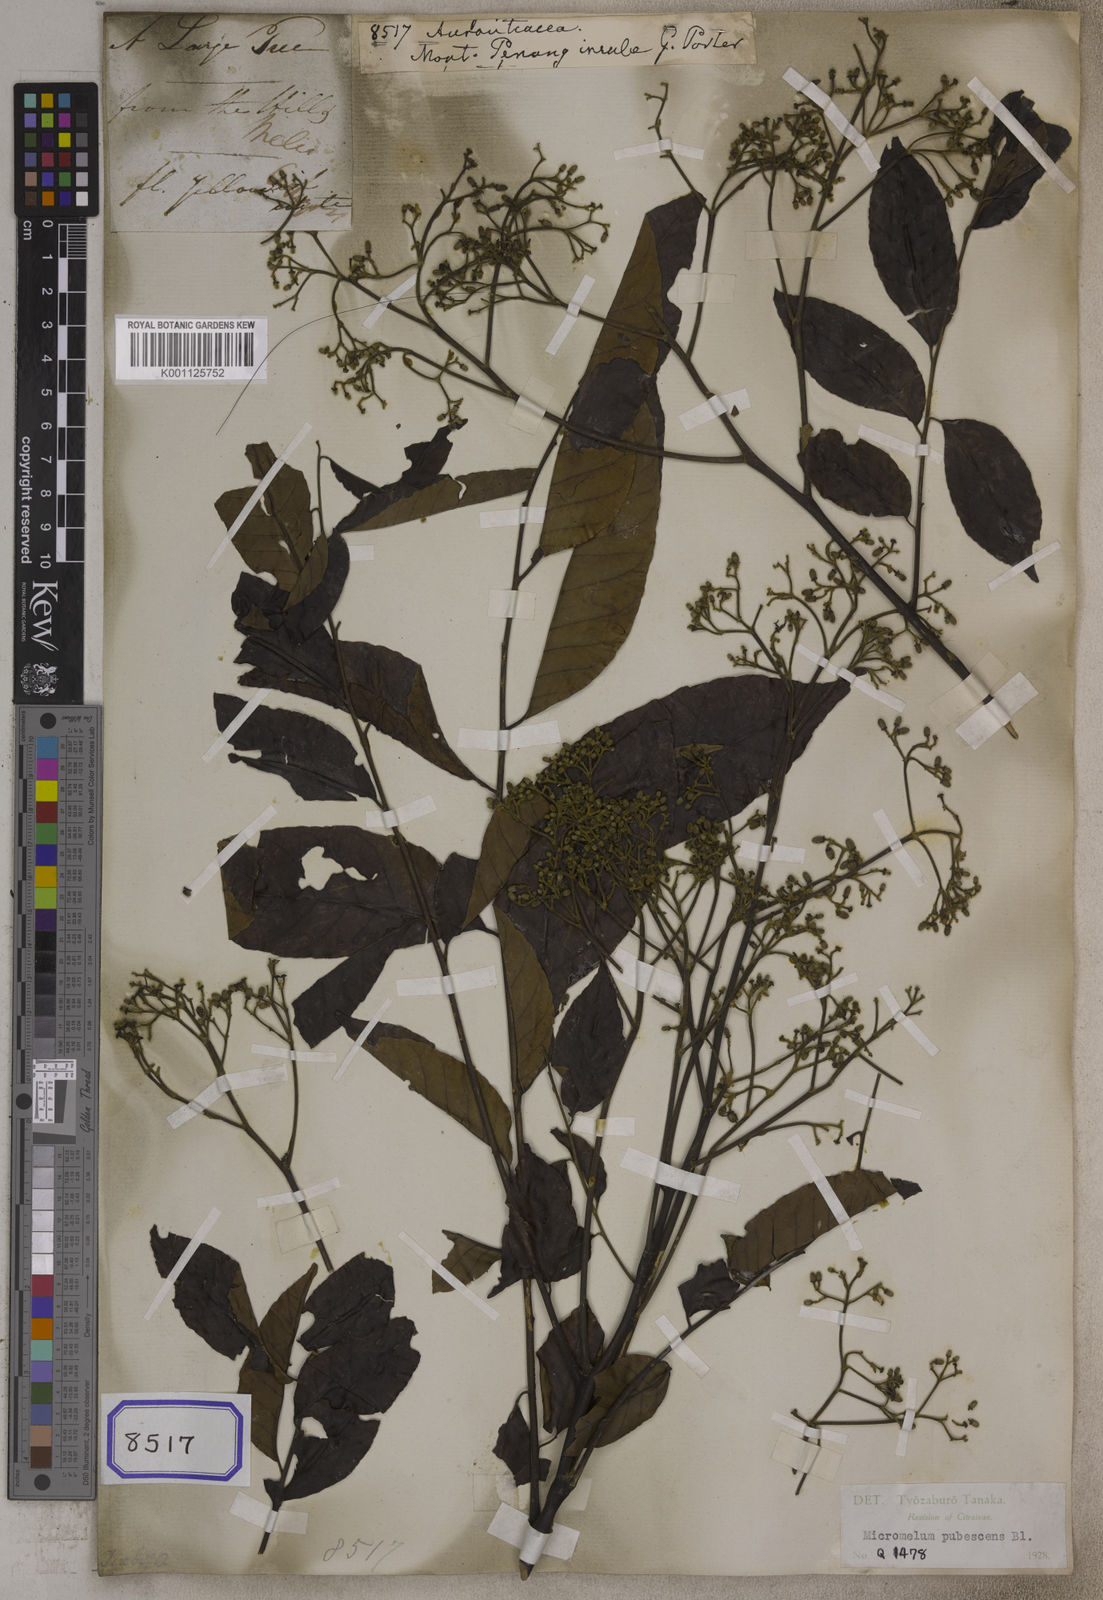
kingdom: Plantae
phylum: Tracheophyta
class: Magnoliopsida
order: Sapindales
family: Rutaceae
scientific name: Rutaceae
